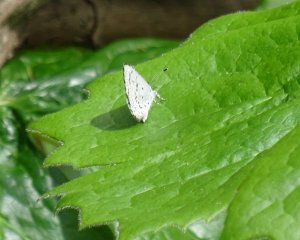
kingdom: Animalia
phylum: Arthropoda
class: Insecta
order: Lepidoptera
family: Lycaenidae
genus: Celastrina
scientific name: Celastrina
